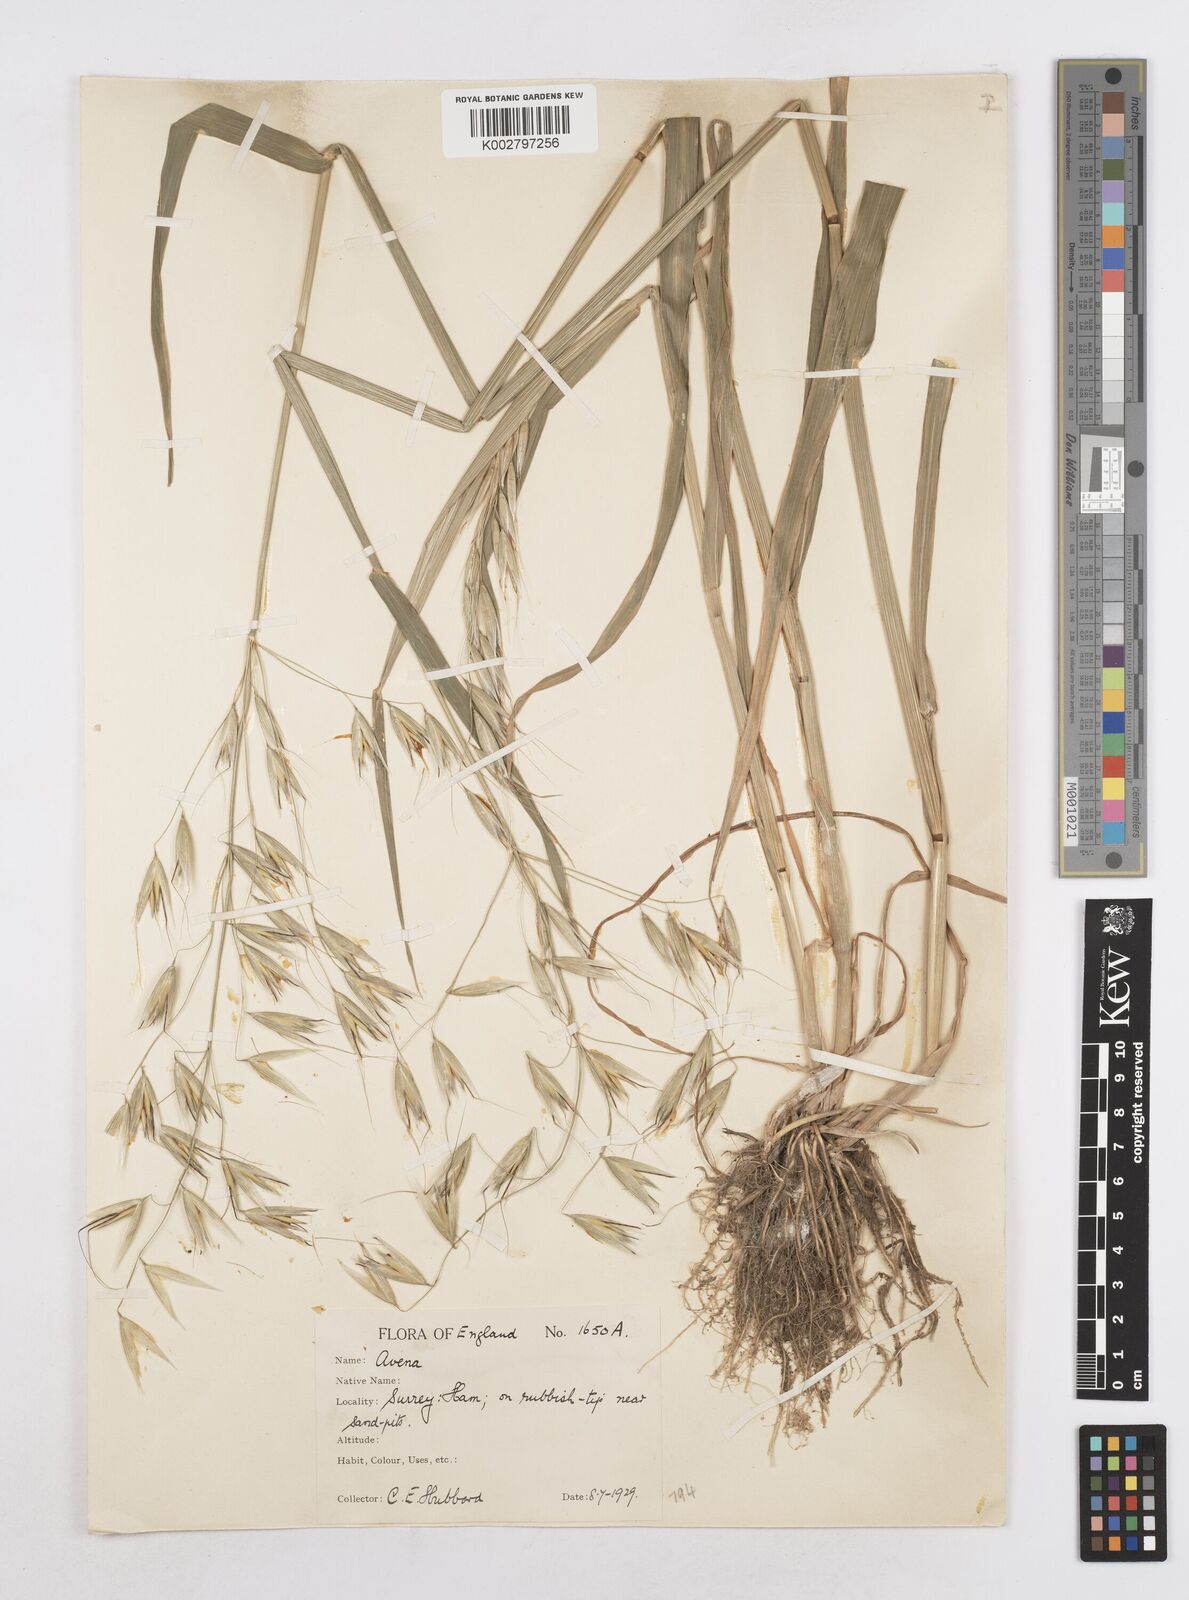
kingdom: Plantae
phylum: Tracheophyta
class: Liliopsida
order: Poales
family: Poaceae
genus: Avena
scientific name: Avena fatua
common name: Wild oat
